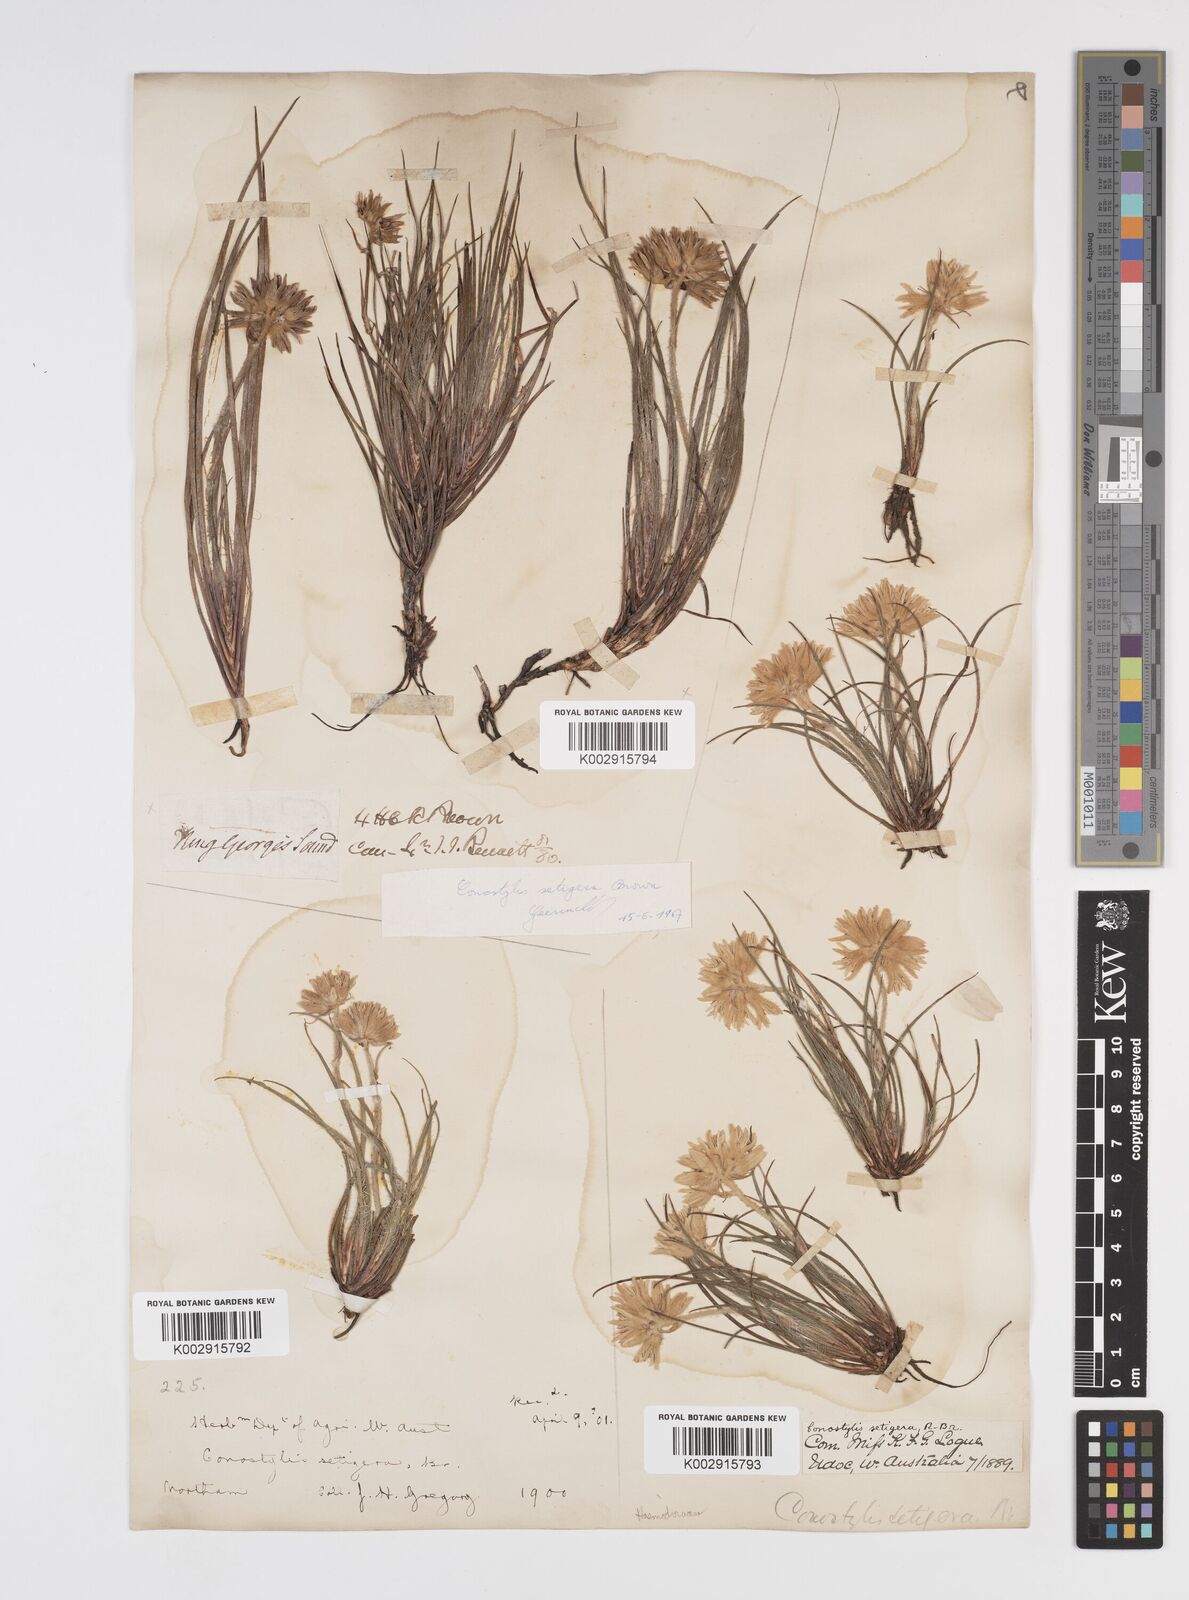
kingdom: Plantae
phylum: Tracheophyta
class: Liliopsida
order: Commelinales
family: Haemodoraceae
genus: Conostylis
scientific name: Conostylis setigera
